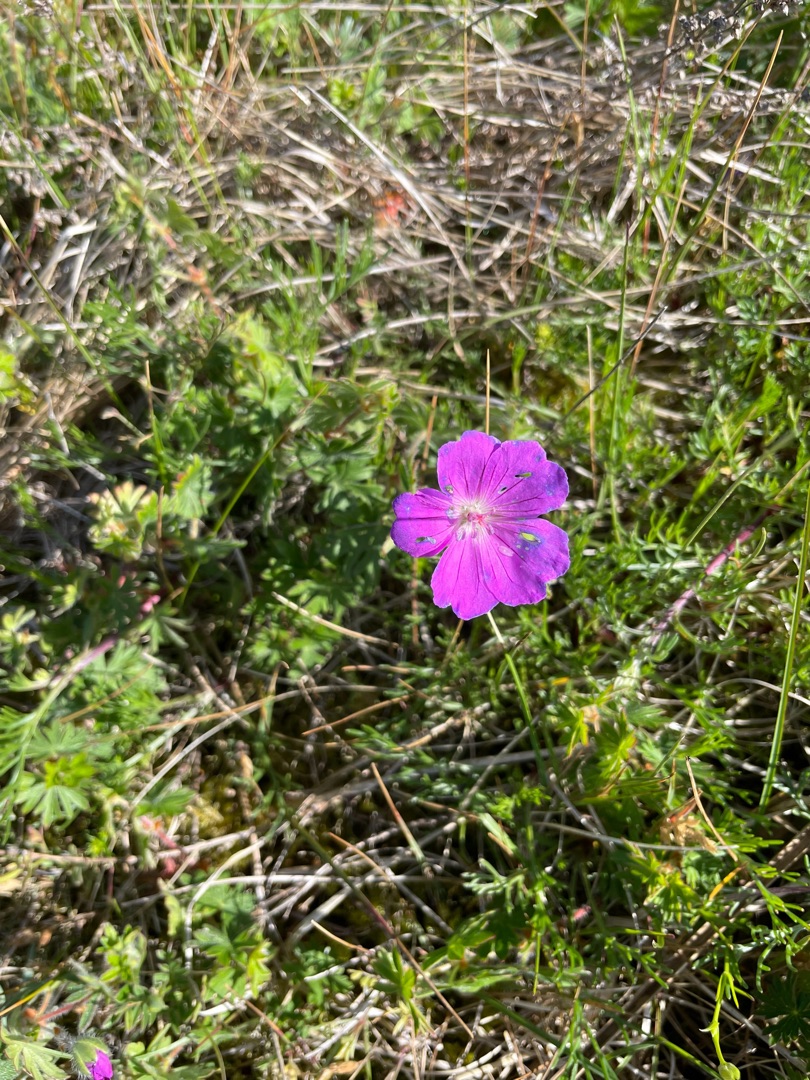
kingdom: Plantae
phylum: Tracheophyta
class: Magnoliopsida
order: Geraniales
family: Geraniaceae
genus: Geranium
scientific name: Geranium sanguineum
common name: Blodrød storkenæb
